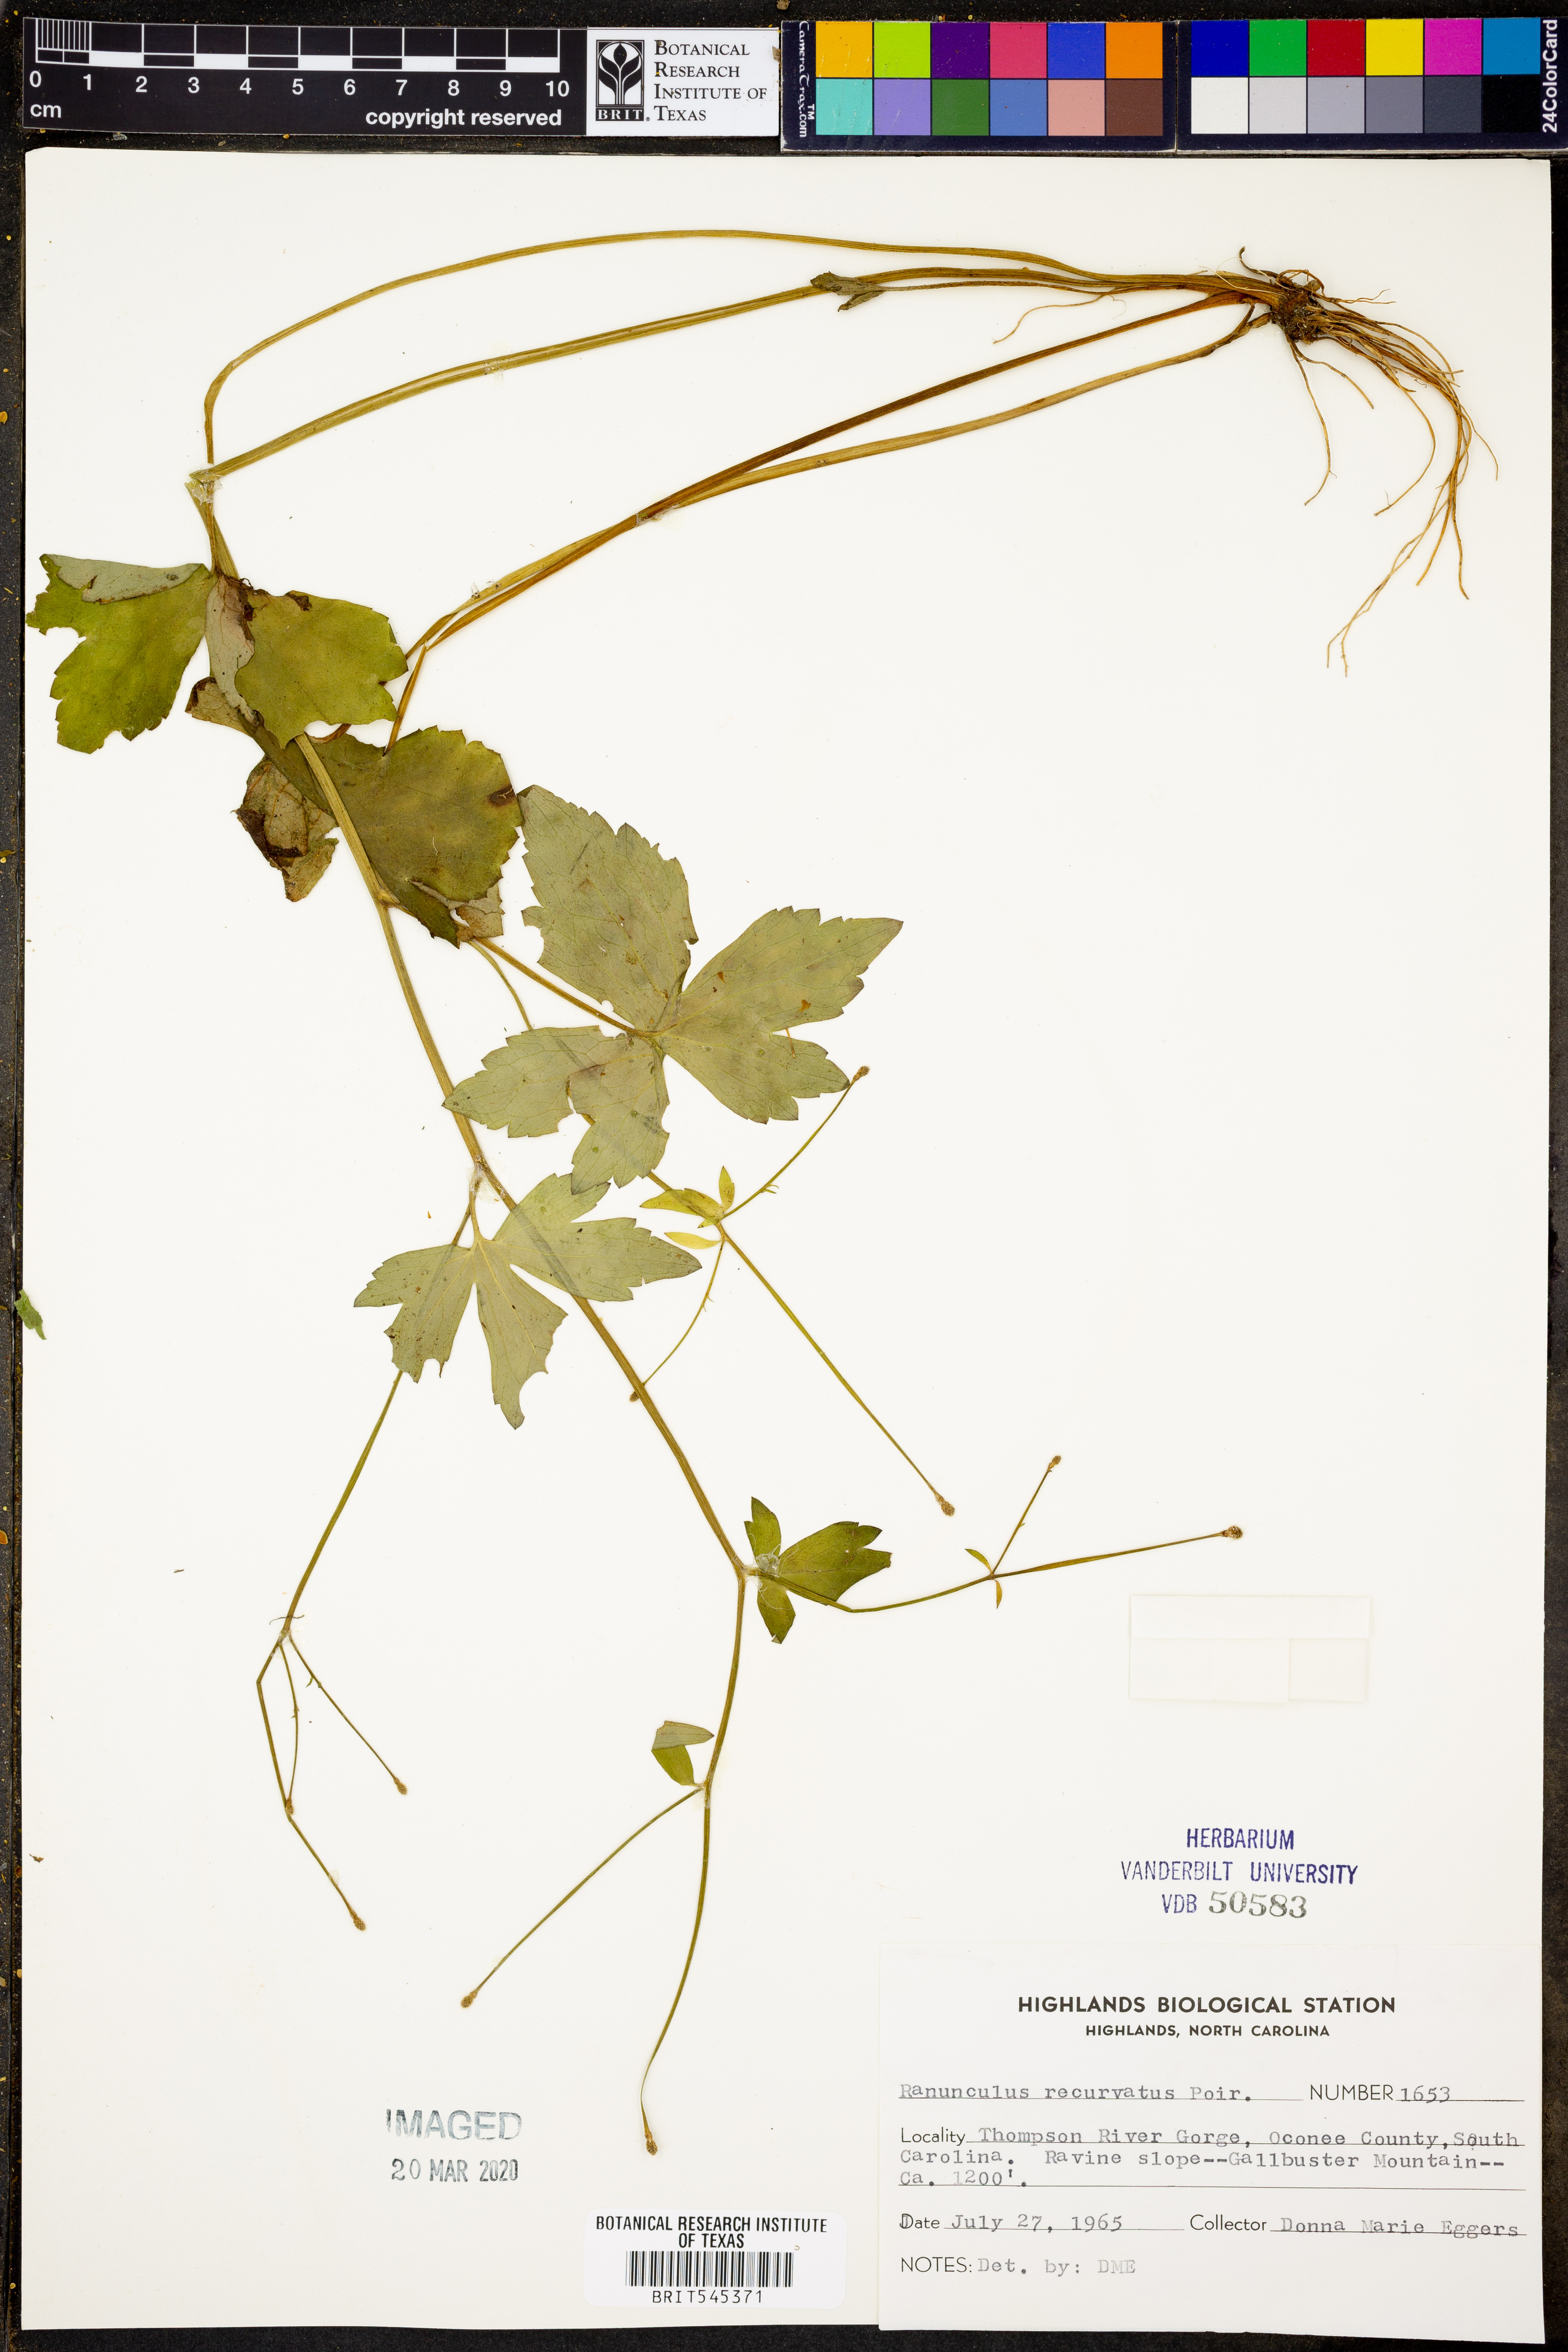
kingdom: Plantae
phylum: Tracheophyta
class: Magnoliopsida
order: Ranunculales
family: Ranunculaceae
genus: Ranunculus
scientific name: Ranunculus recurvatus
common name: Blisterwort
